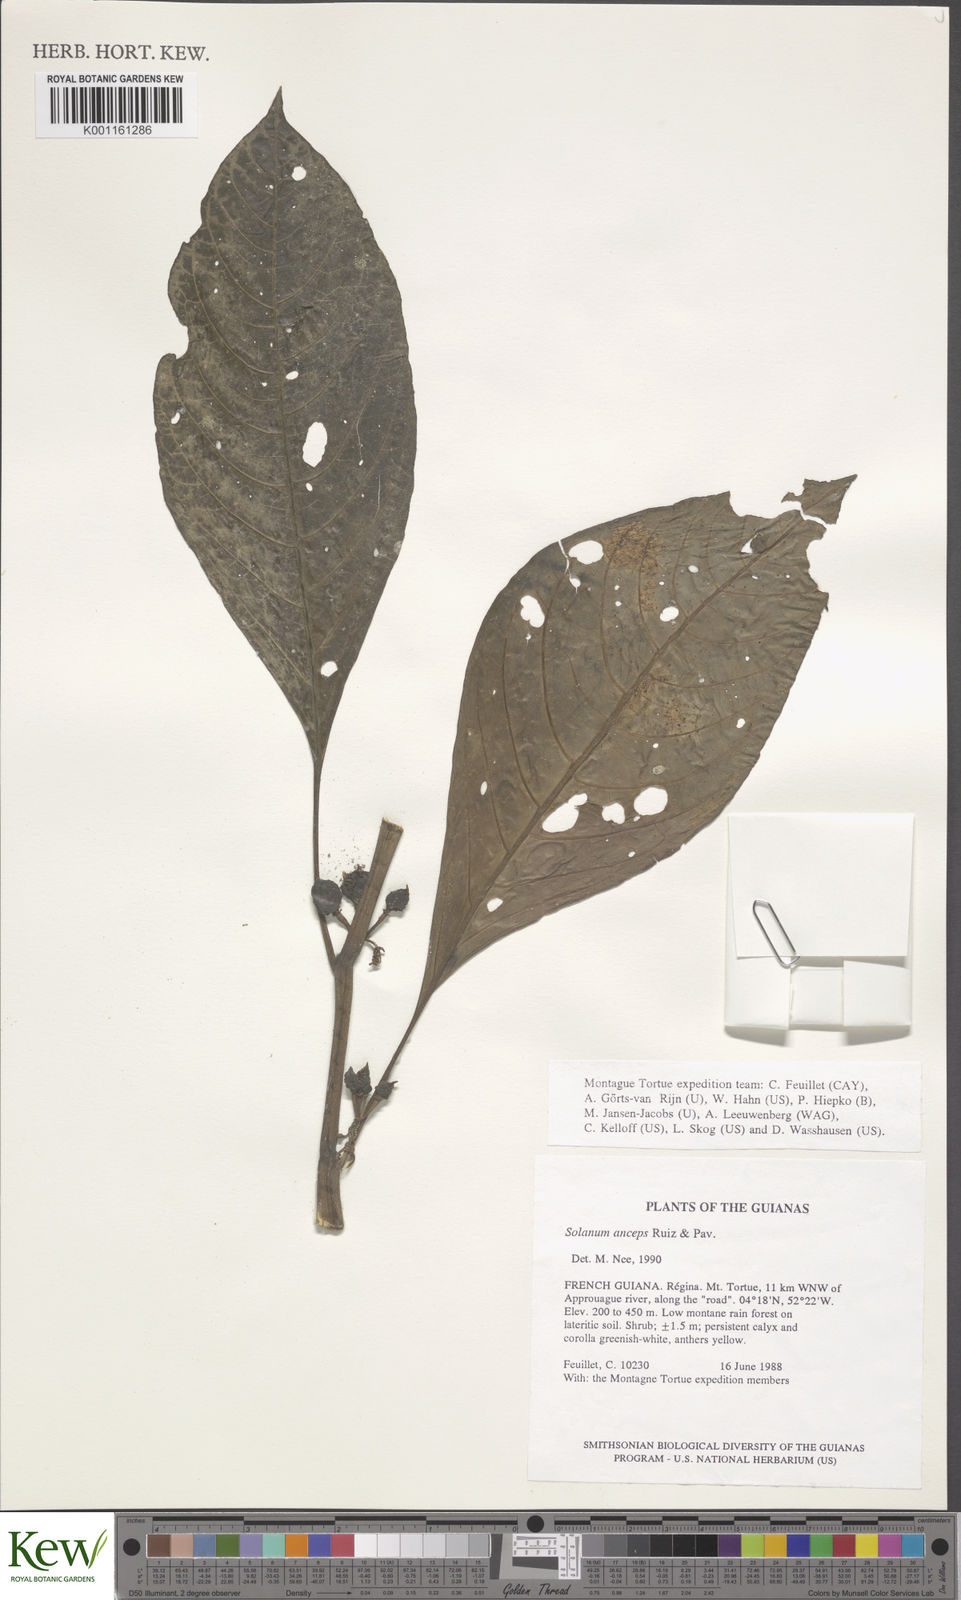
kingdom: Plantae
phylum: Tracheophyta
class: Magnoliopsida
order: Solanales
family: Solanaceae
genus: Solanum
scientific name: Solanum anceps
